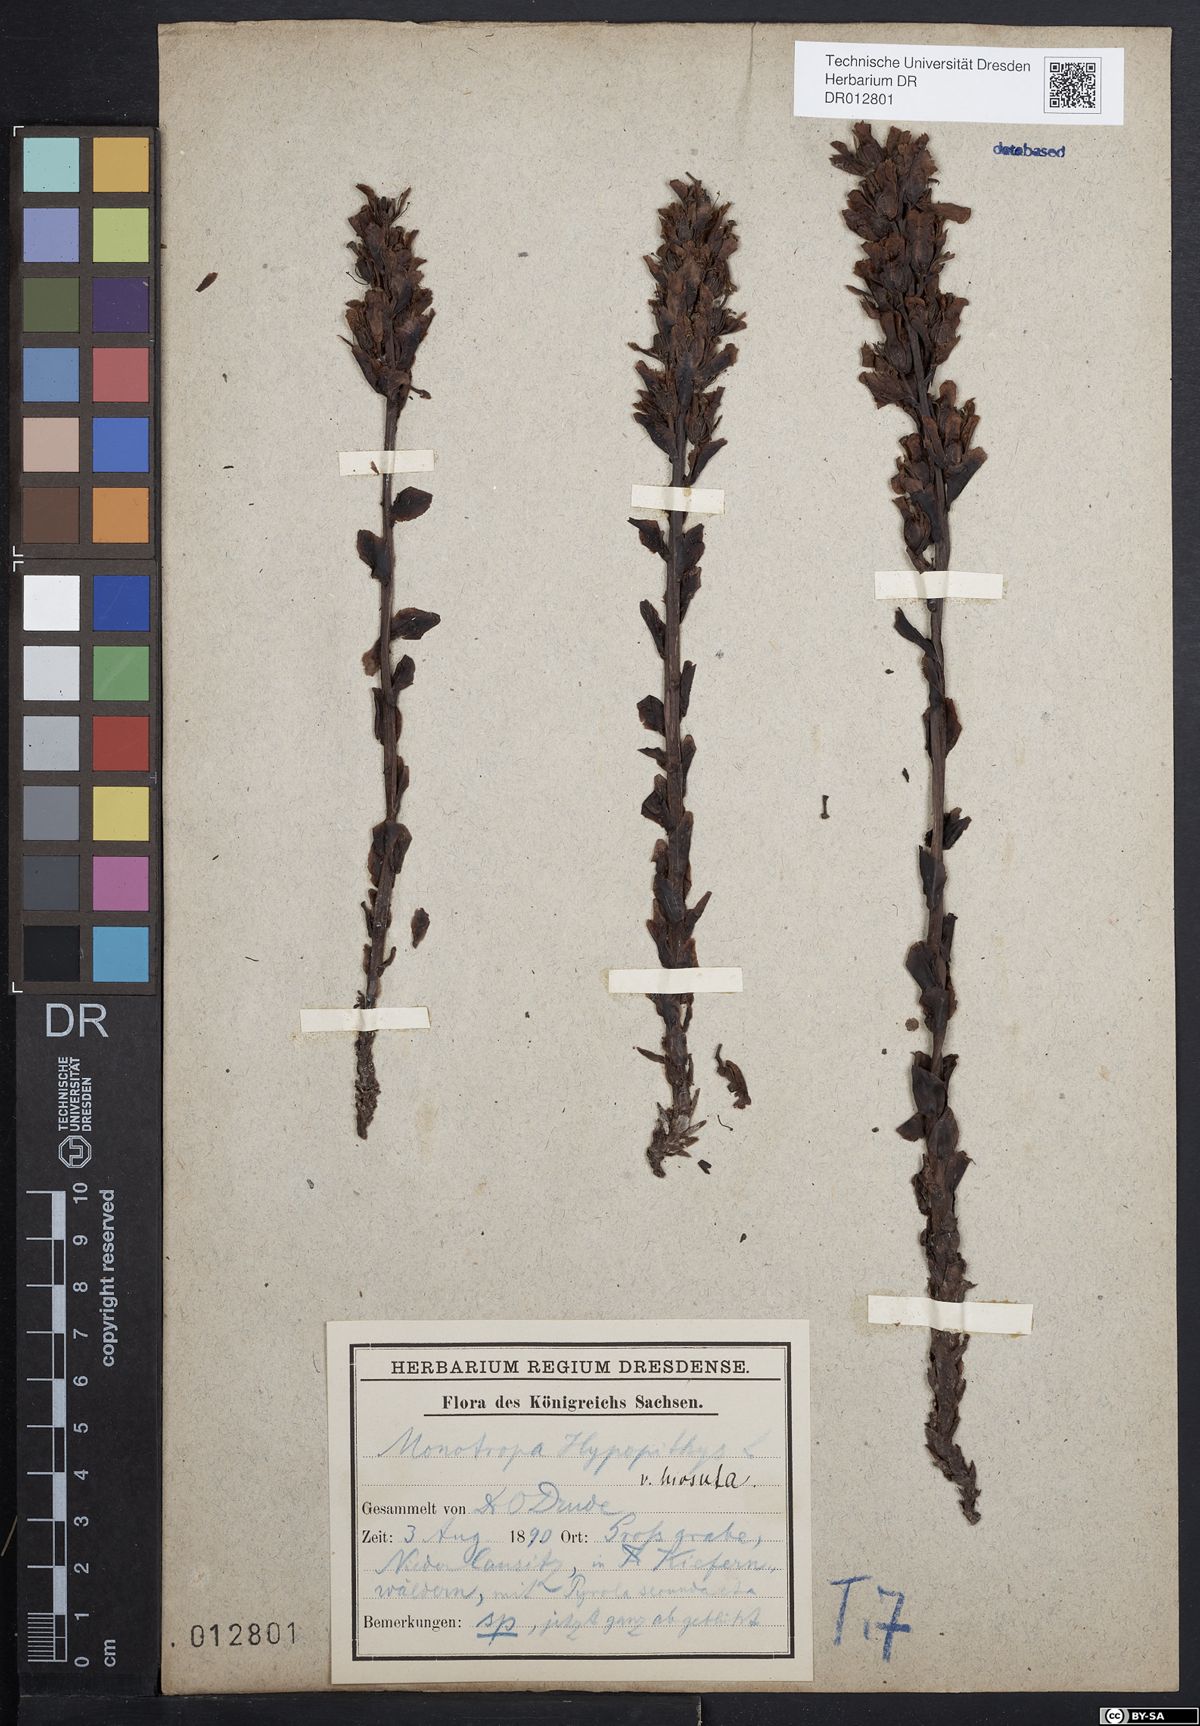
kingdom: Plantae
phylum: Tracheophyta
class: Magnoliopsida
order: Ericales
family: Ericaceae
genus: Hypopitys
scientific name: Hypopitys monotropa
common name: Yellow bird's-nest
